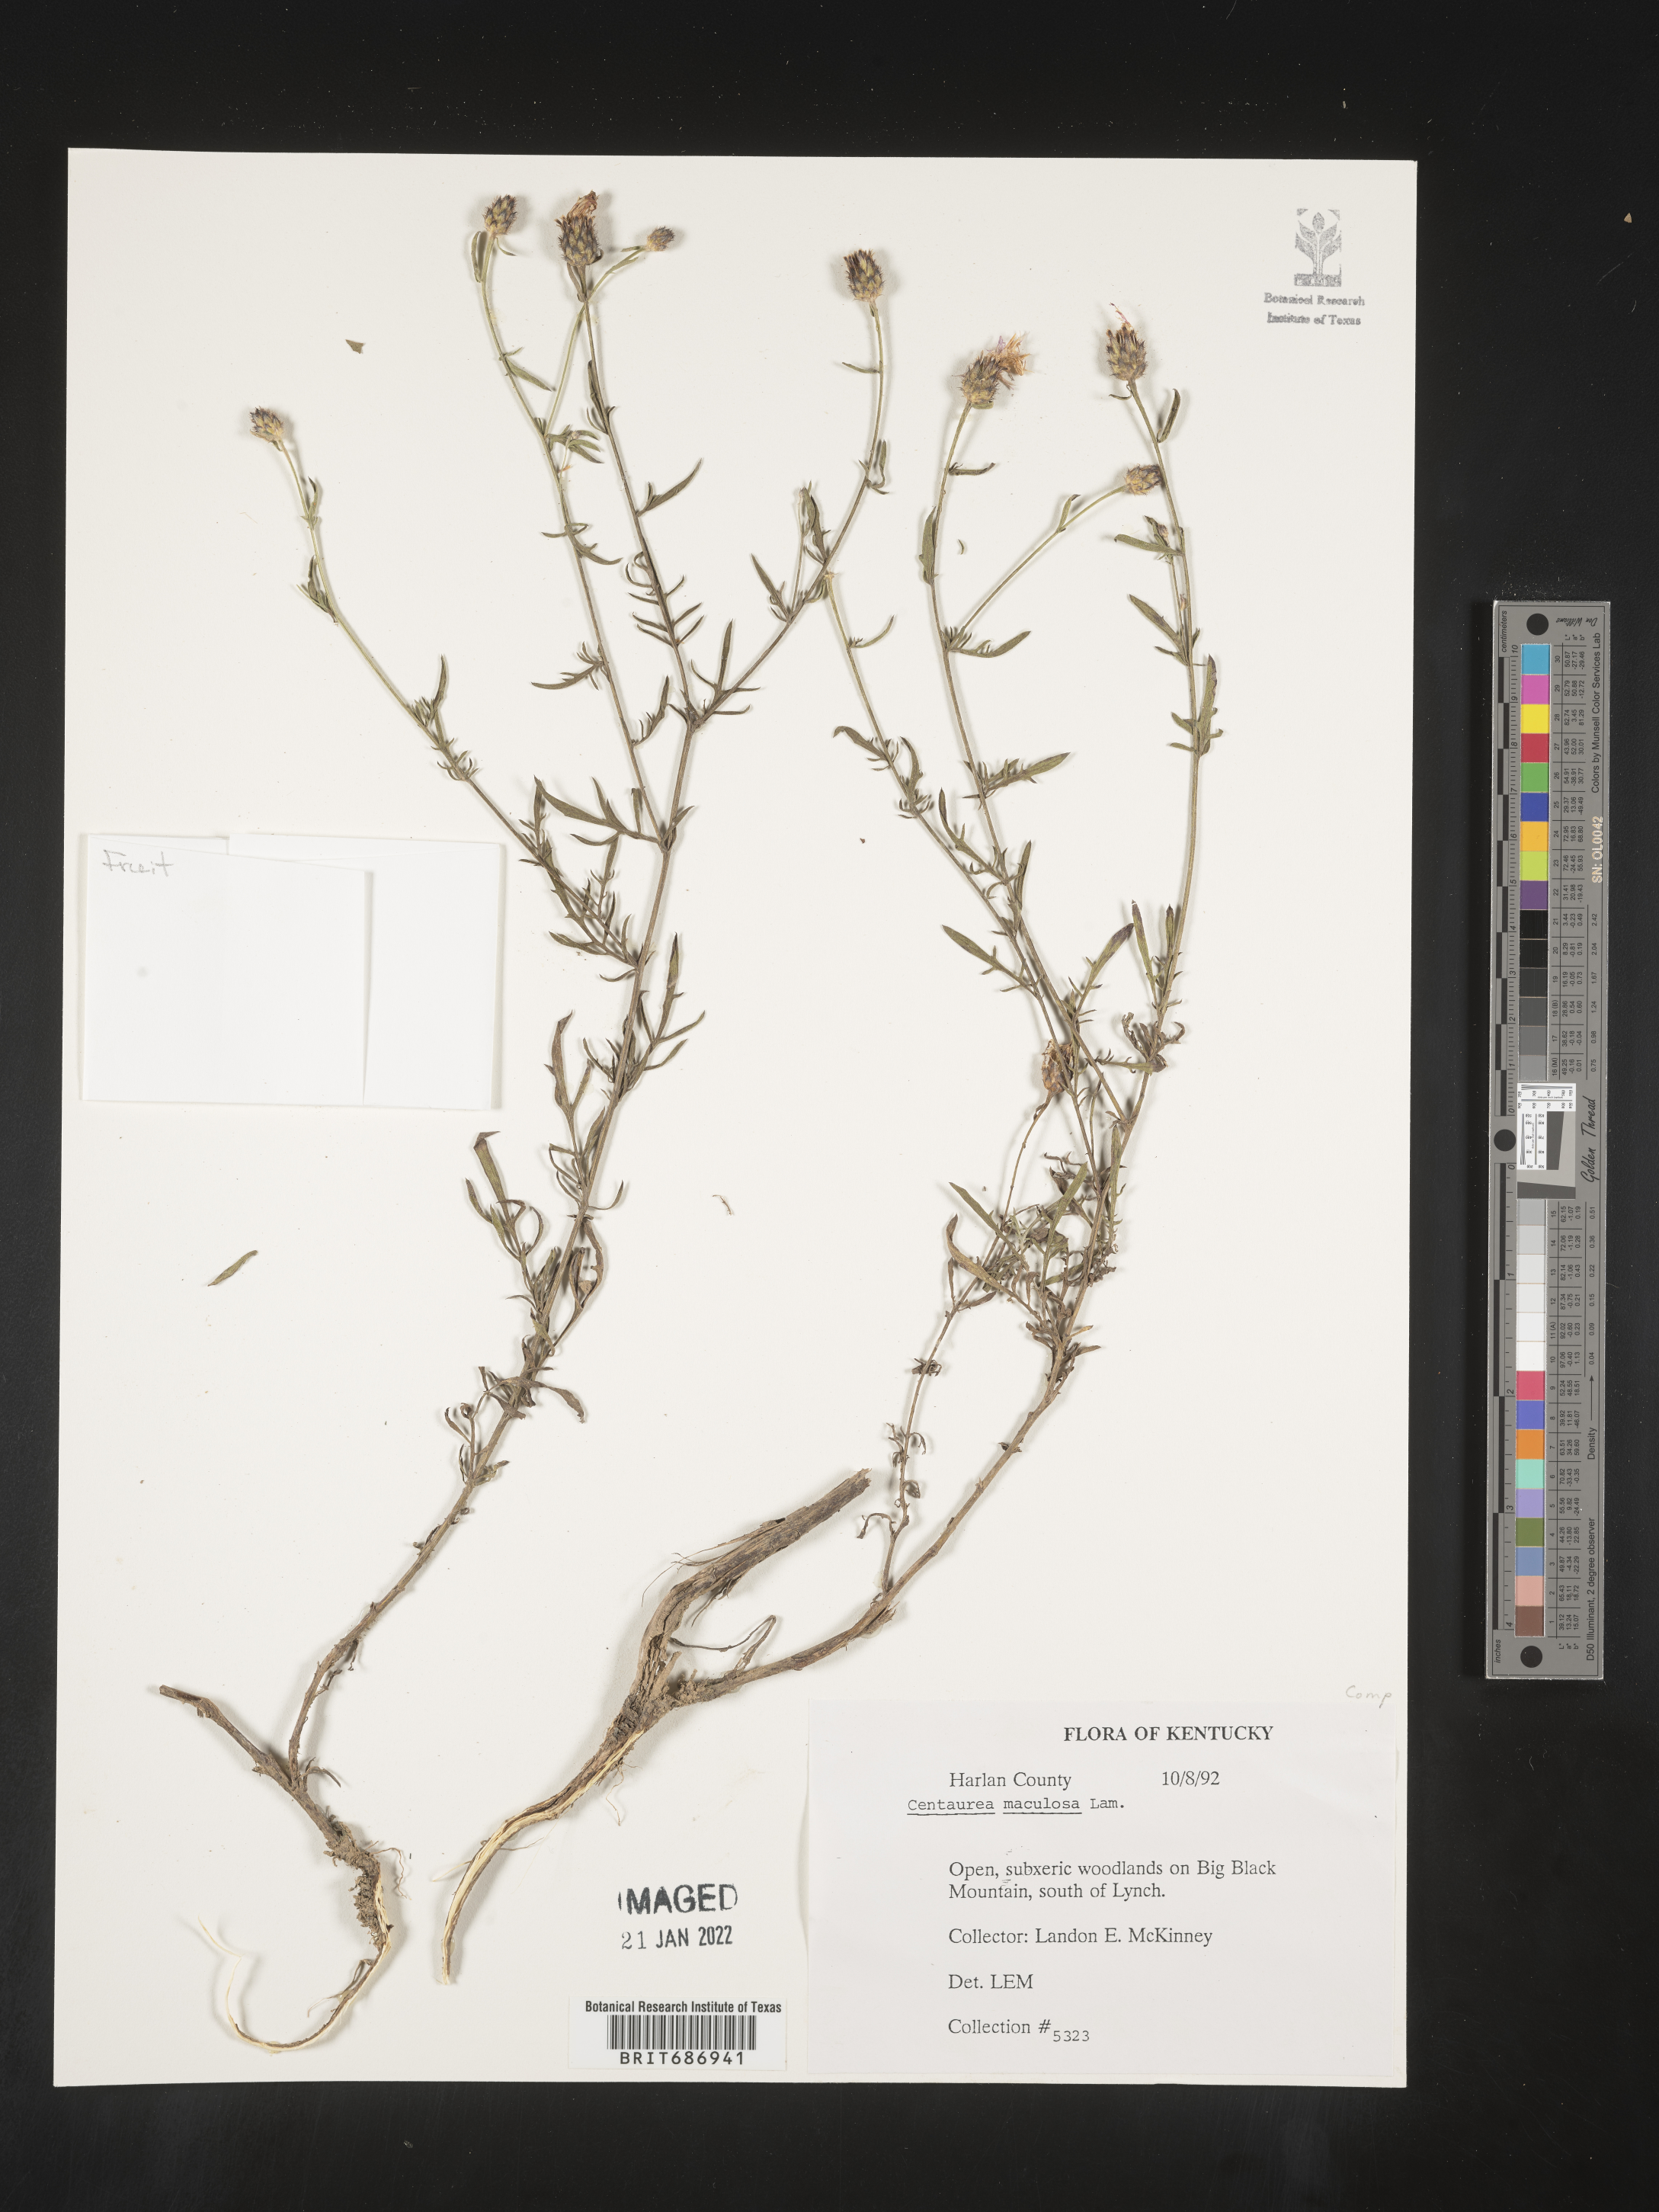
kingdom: Plantae
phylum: Tracheophyta
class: Magnoliopsida
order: Asterales
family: Asteraceae
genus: Centaurea
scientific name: Centaurea
